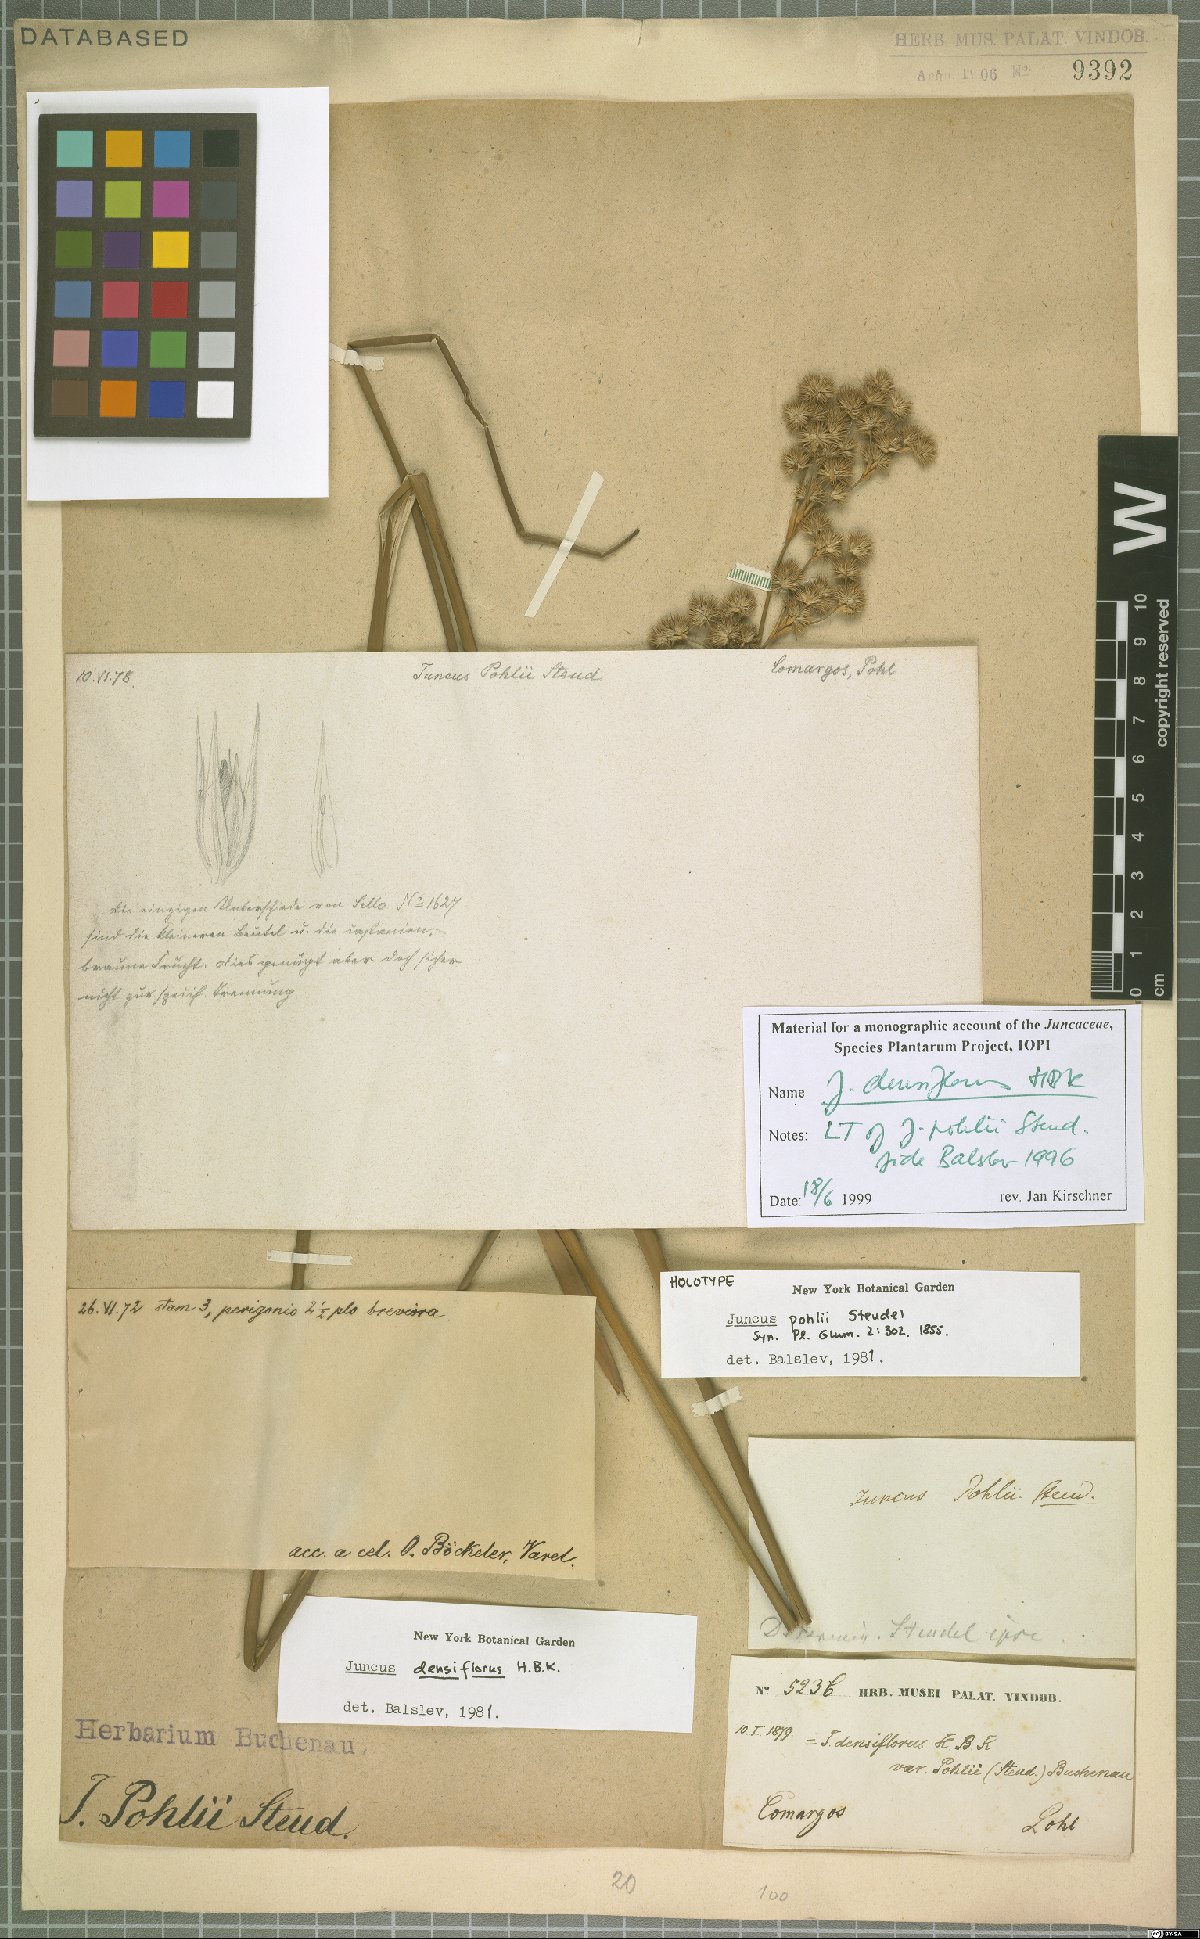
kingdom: Plantae
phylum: Tracheophyta
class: Liliopsida
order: Poales
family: Juncaceae
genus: Juncus
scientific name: Juncus densiflorus
